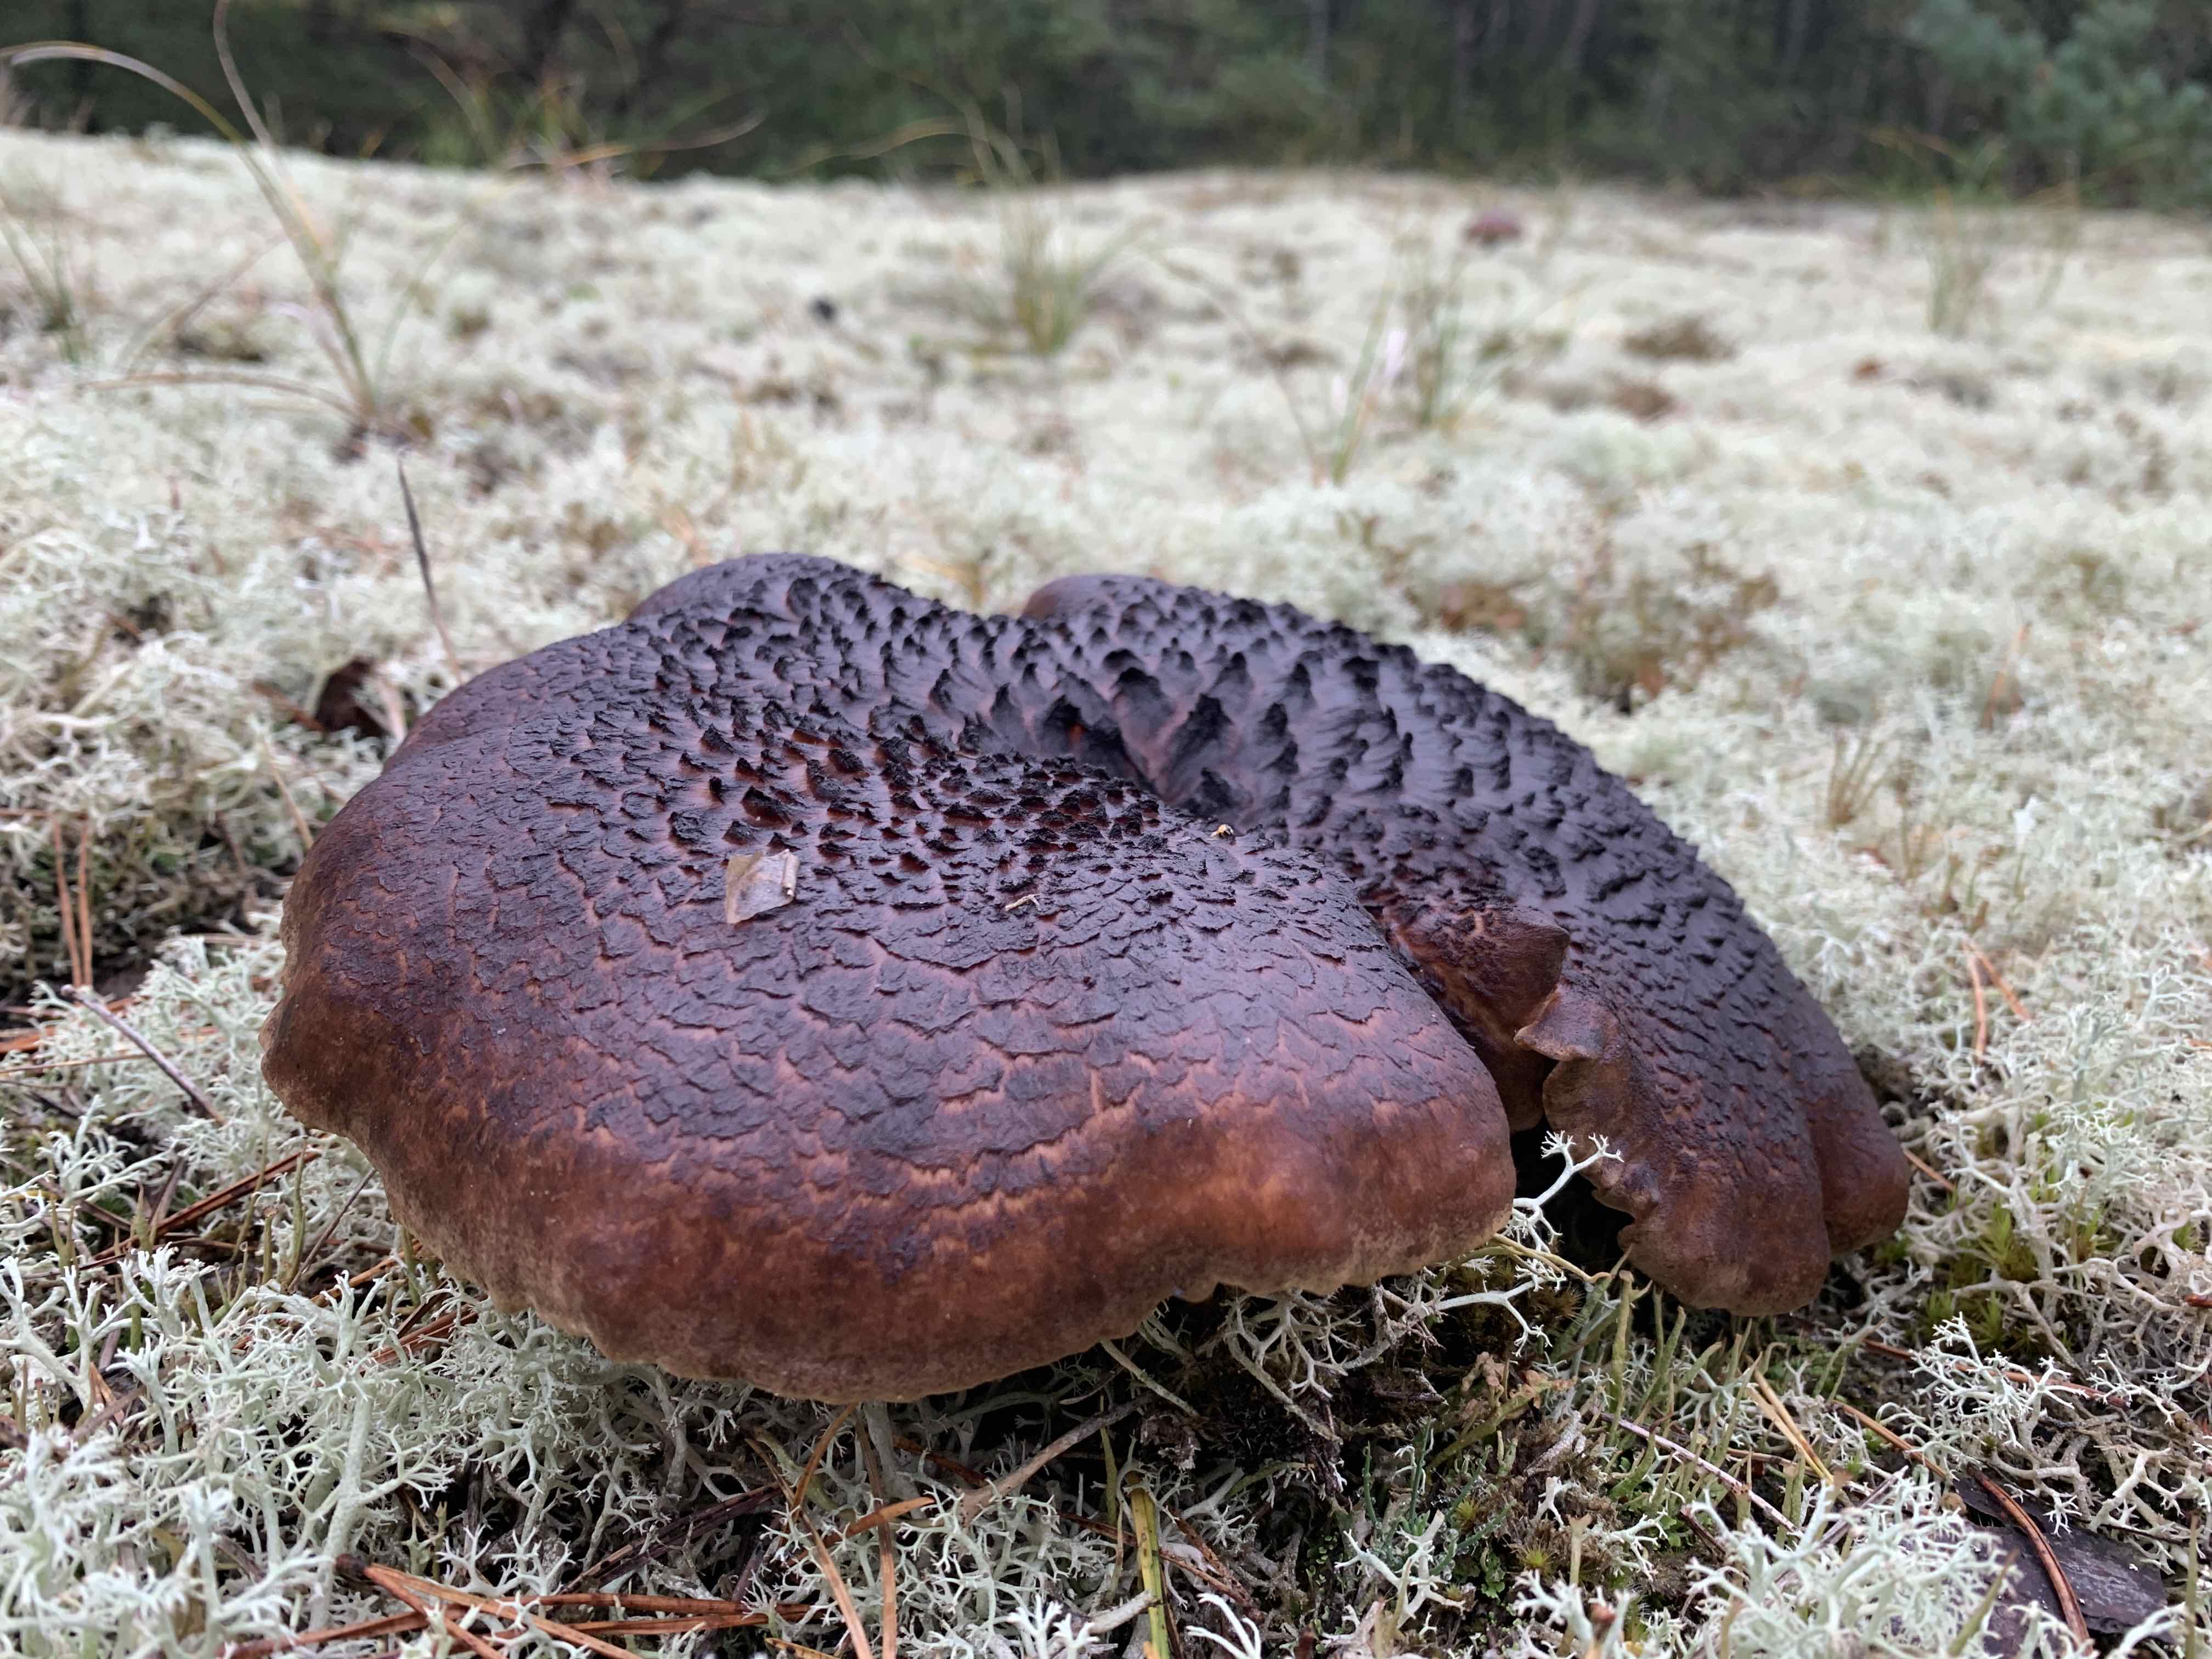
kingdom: Fungi
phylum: Basidiomycota
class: Agaricomycetes
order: Thelephorales
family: Bankeraceae
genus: Sarcodon
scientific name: Sarcodon squamosus
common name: småskællet kødpigsvamp
